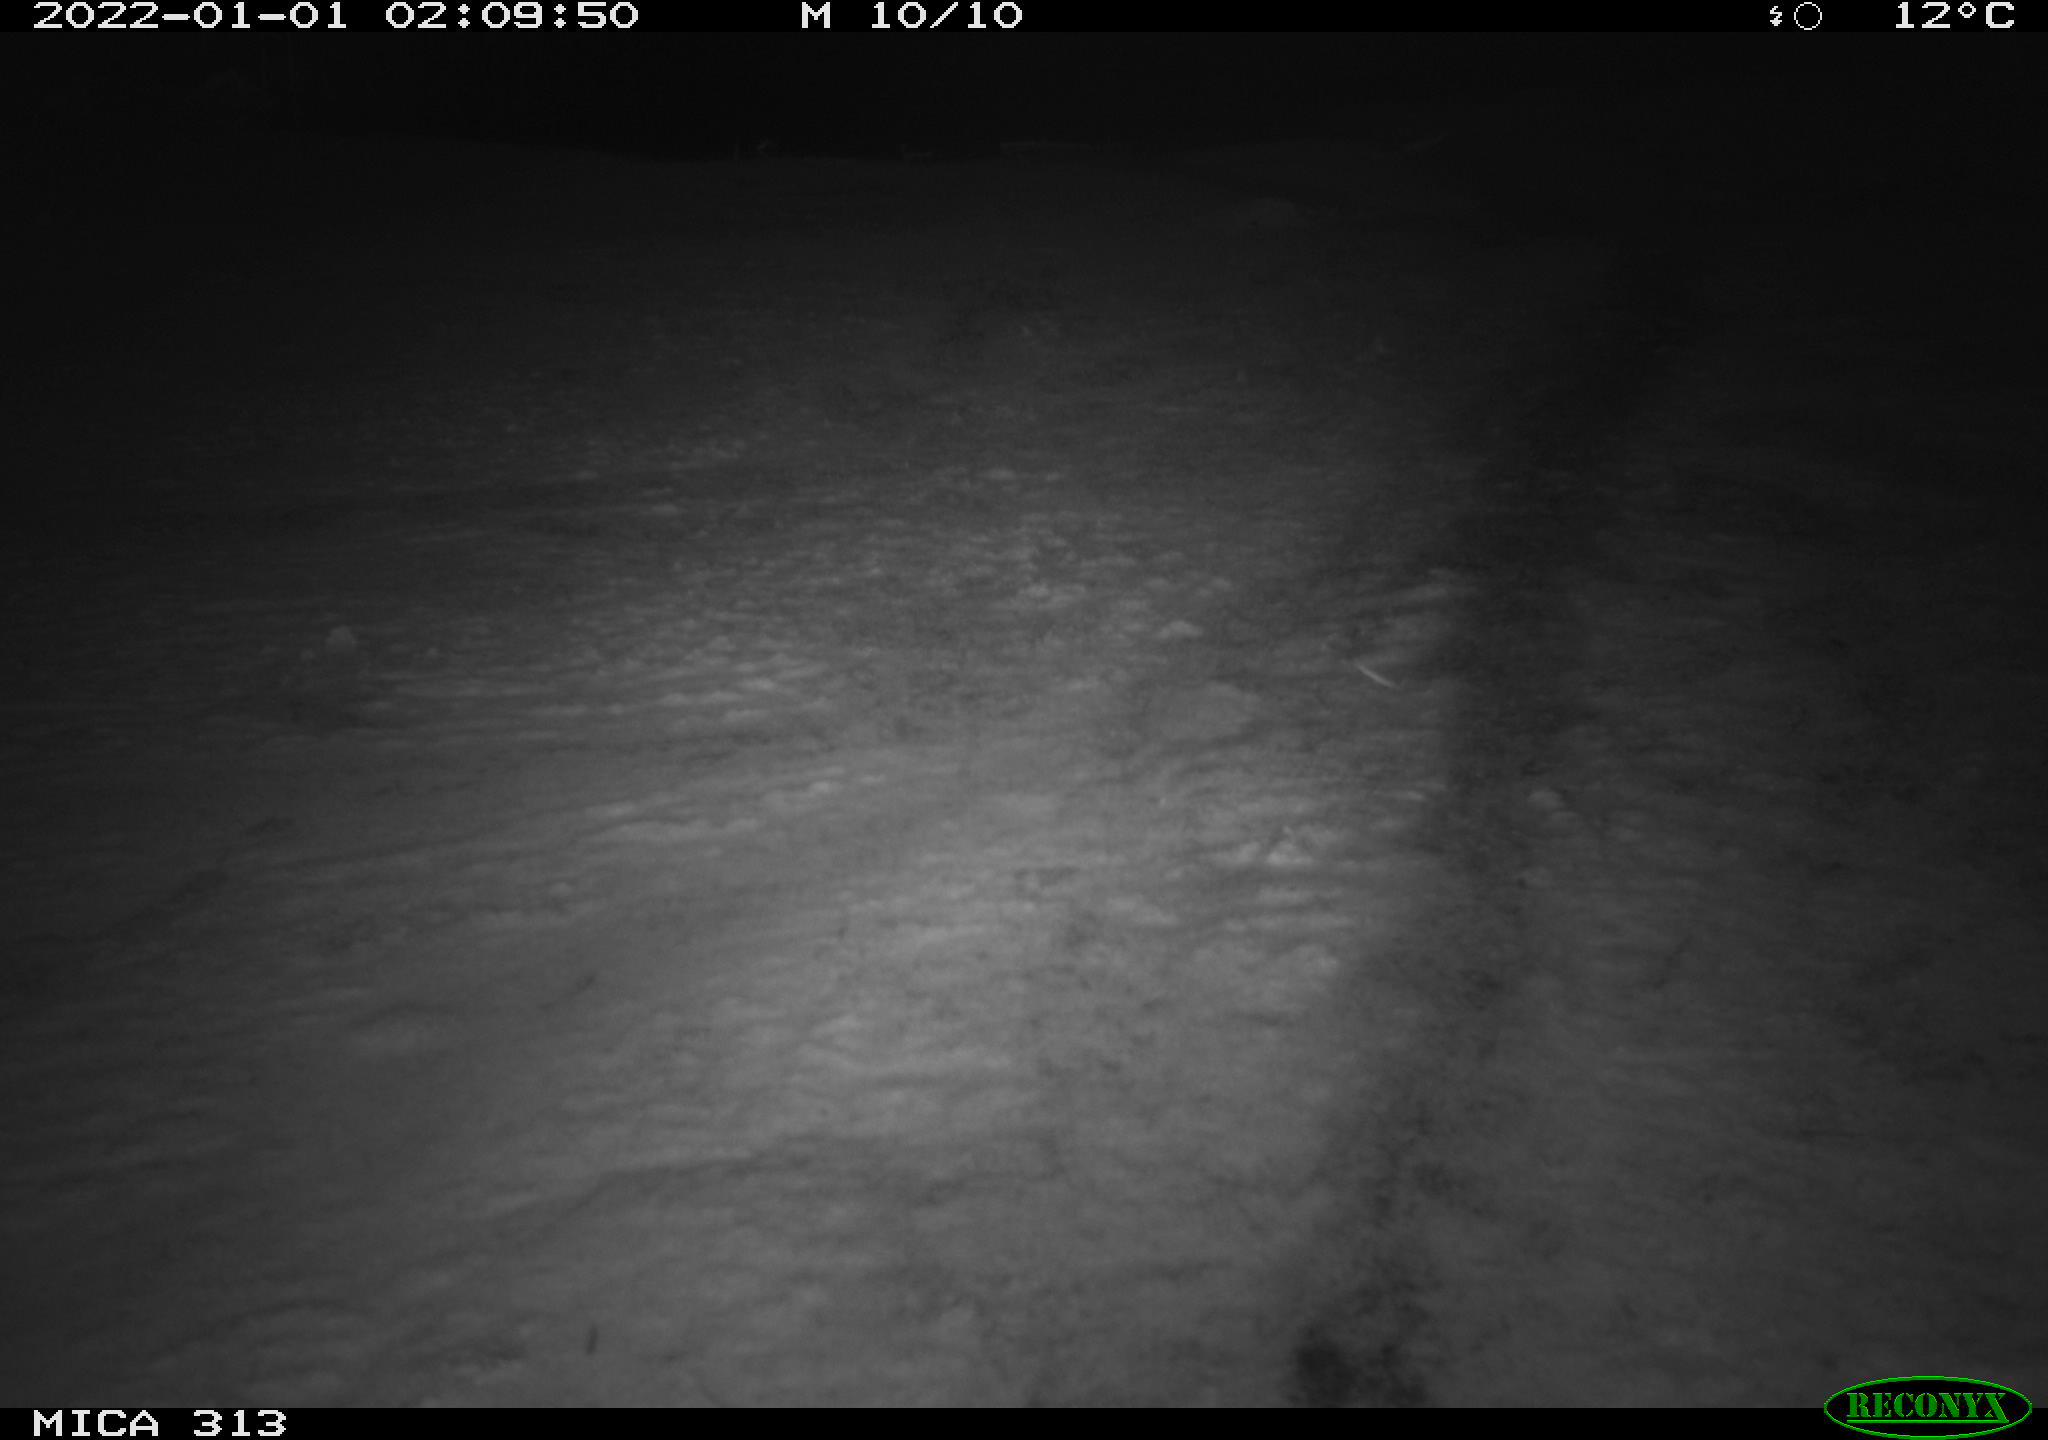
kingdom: Animalia
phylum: Chordata
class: Aves
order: Gruiformes
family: Rallidae
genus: Gallinula
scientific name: Gallinula chloropus
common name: Common moorhen
